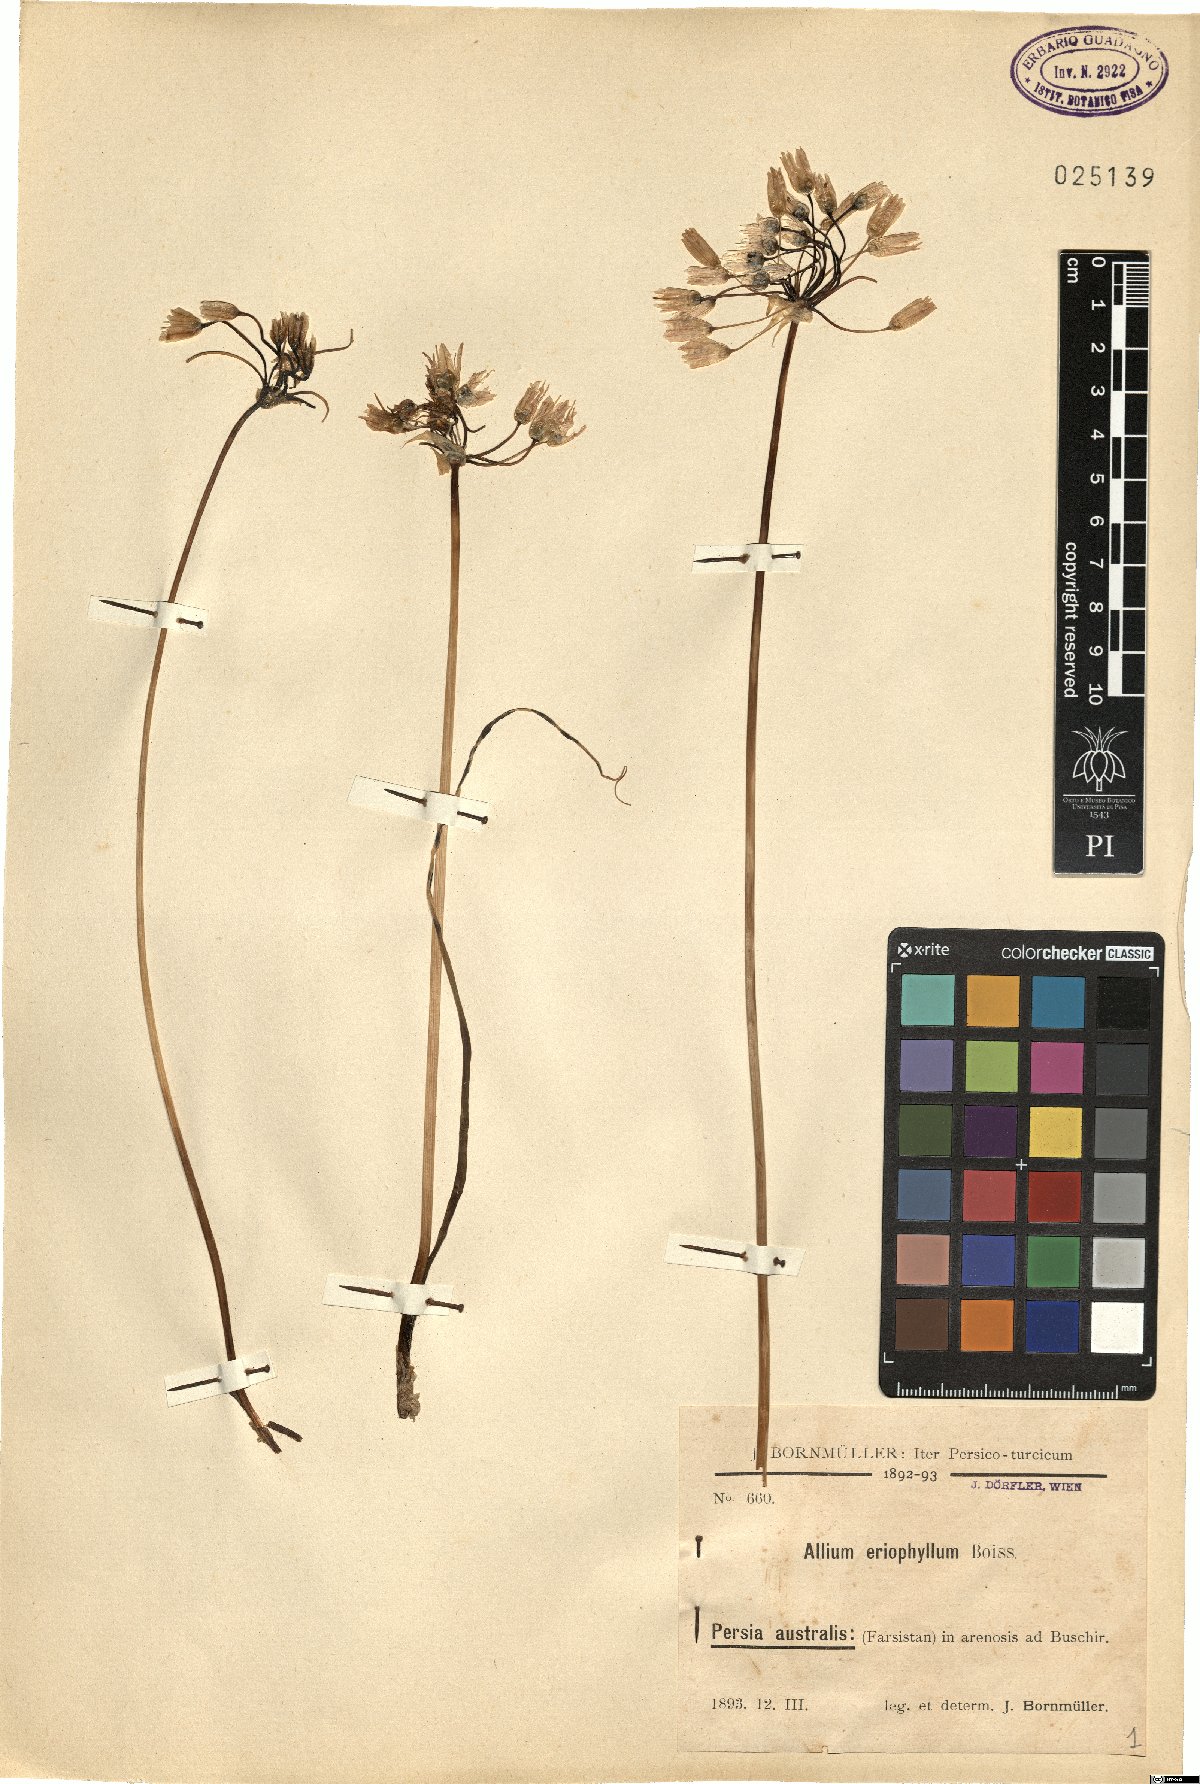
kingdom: Plantae
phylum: Tracheophyta
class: Liliopsida
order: Asparagales
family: Amaryllidaceae
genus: Allium
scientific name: Allium longisepalum
